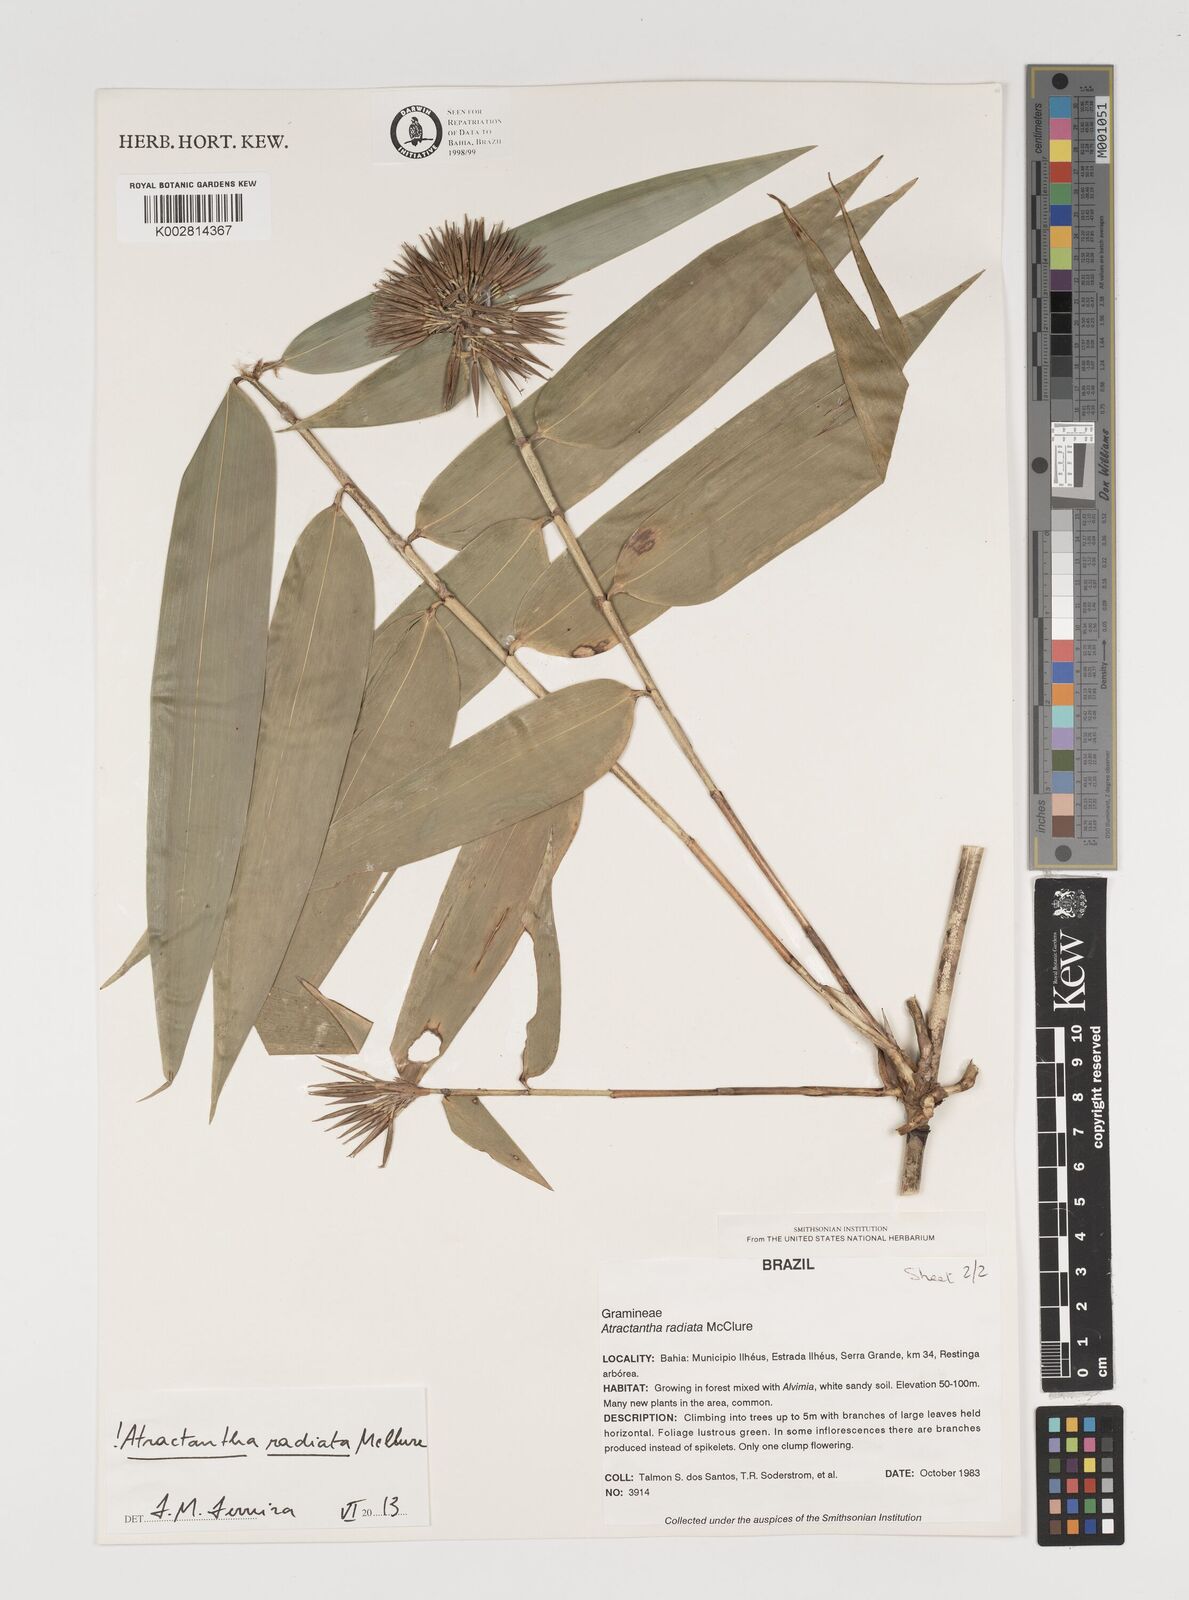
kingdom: Plantae
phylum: Tracheophyta
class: Liliopsida
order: Poales
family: Poaceae
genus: Atractantha
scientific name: Atractantha radiata
